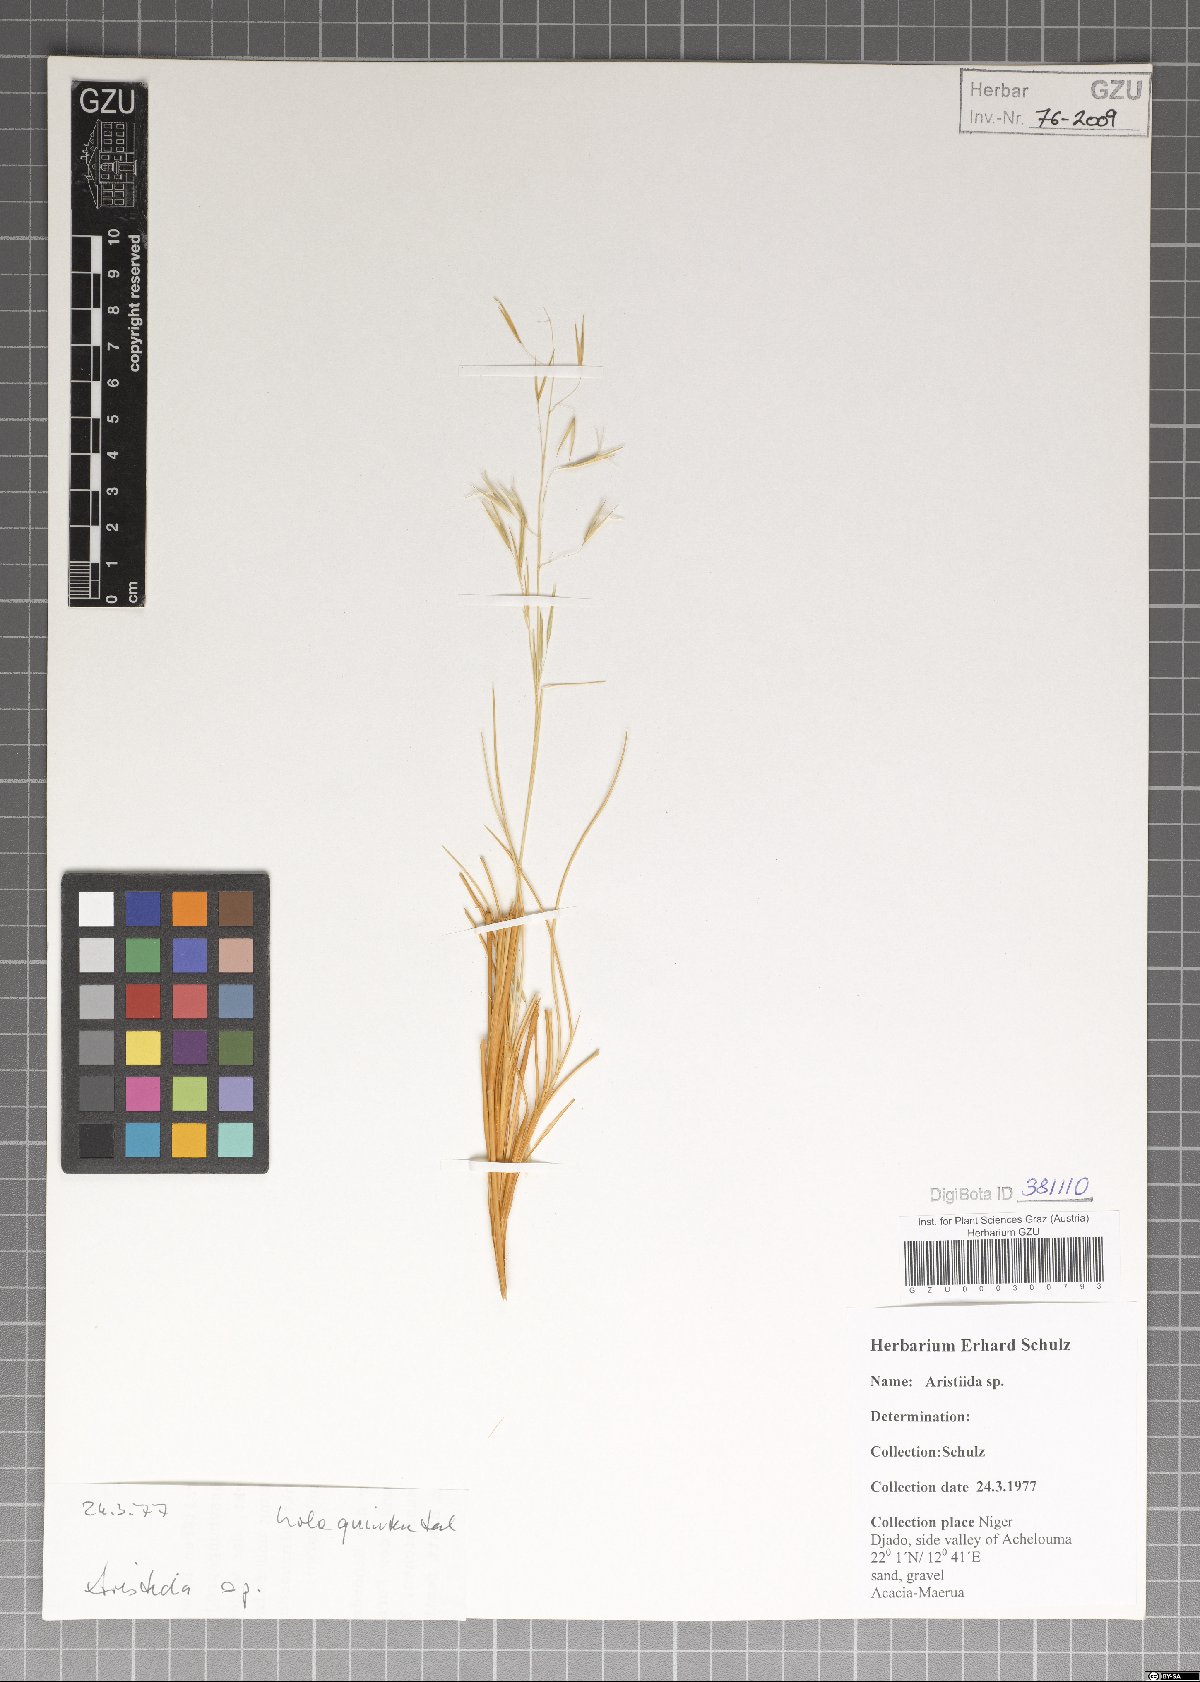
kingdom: Plantae
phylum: Tracheophyta
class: Liliopsida
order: Poales
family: Poaceae
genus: Aristida
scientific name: Aristida
